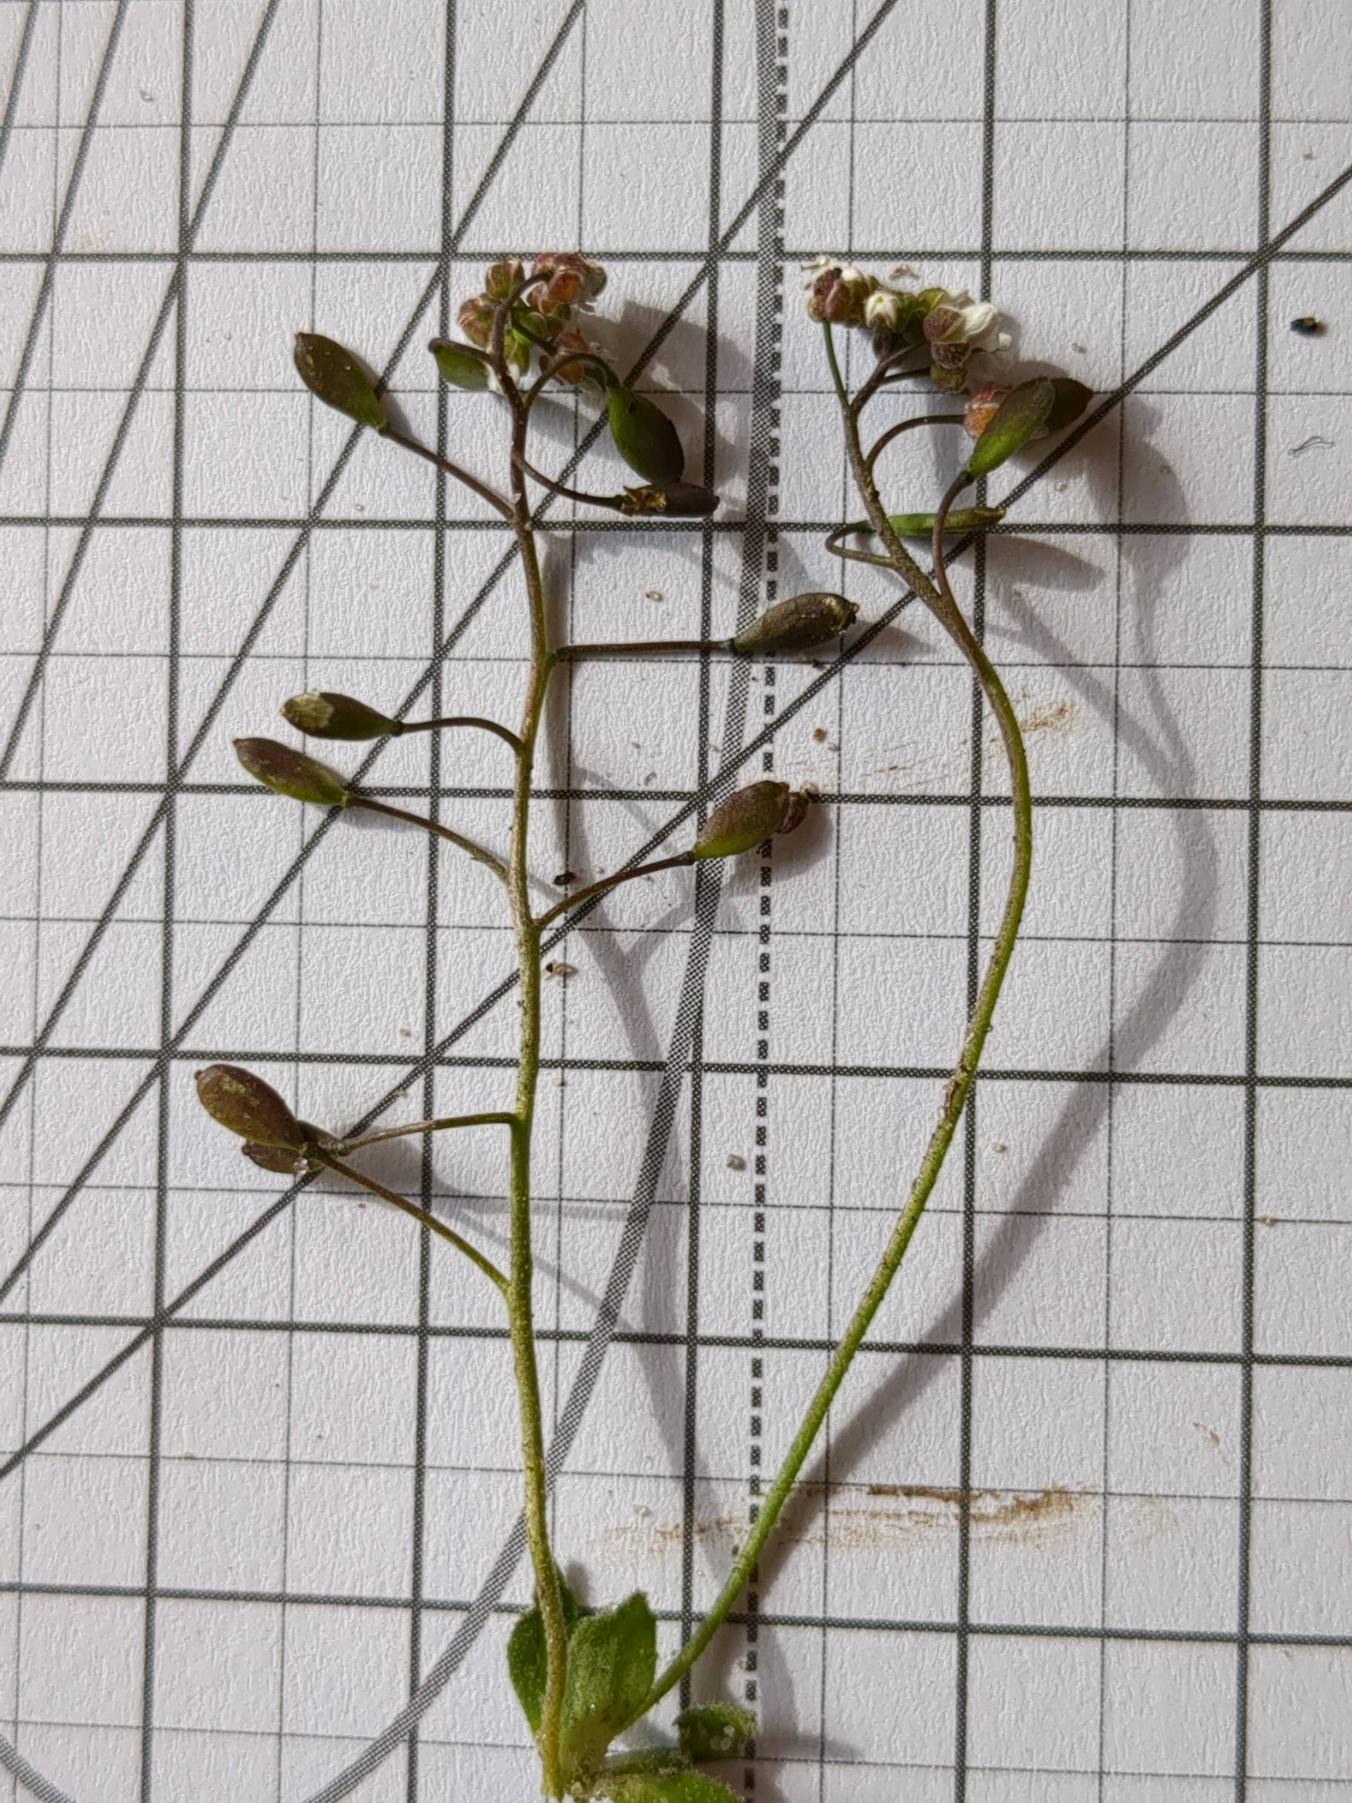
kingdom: Plantae
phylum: Tracheophyta
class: Magnoliopsida
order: Brassicales
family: Brassicaceae
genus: Draba
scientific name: Draba verna
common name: Vår-gæslingeblomst
